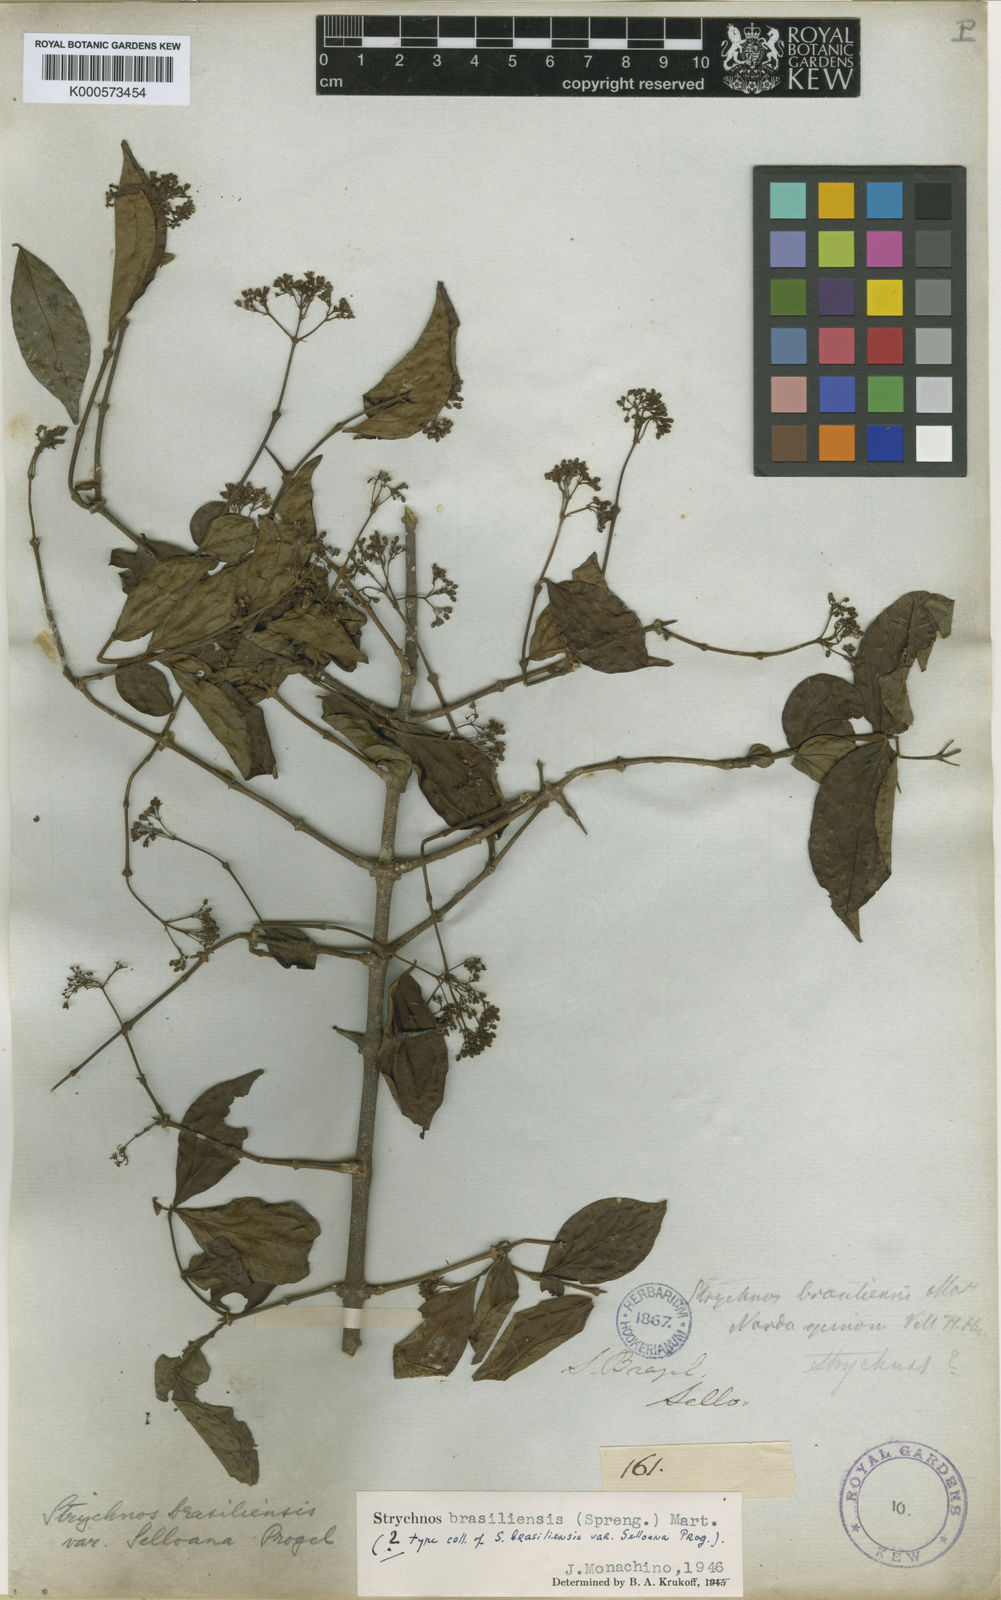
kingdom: Plantae
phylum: Tracheophyta
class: Magnoliopsida
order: Gentianales
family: Loganiaceae
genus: Strychnos
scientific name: Strychnos brasiliensis
